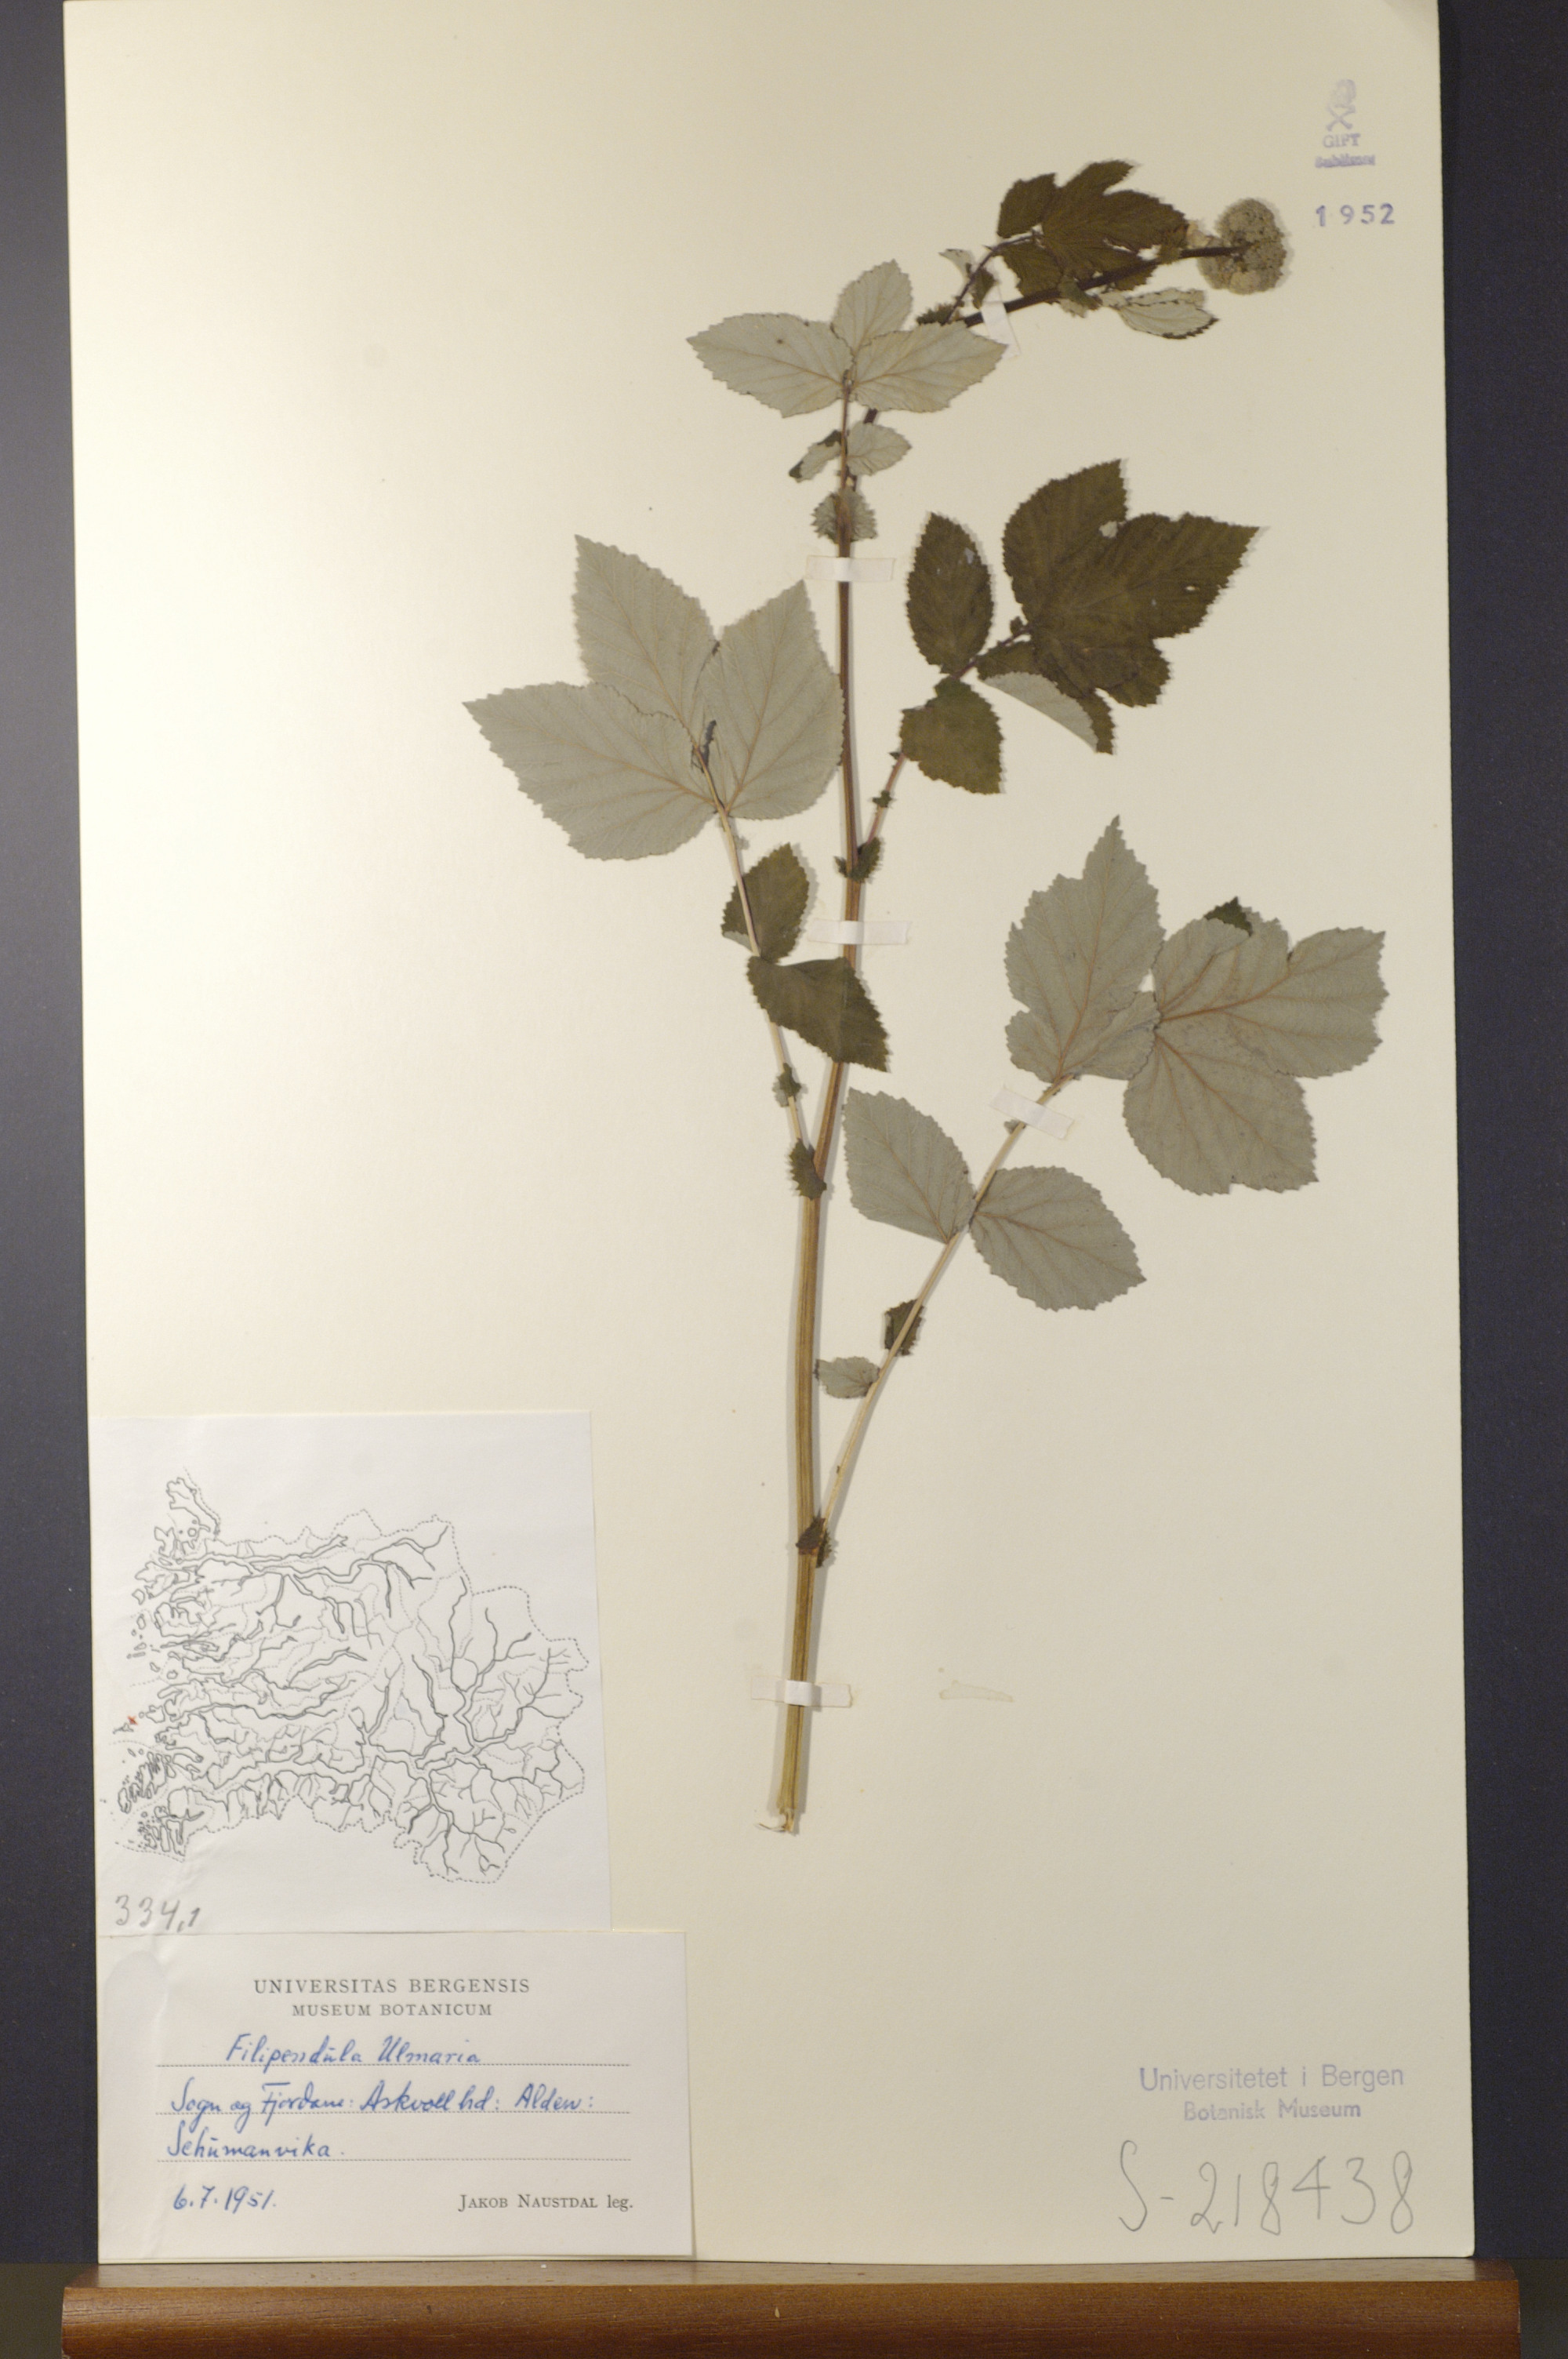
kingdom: Plantae
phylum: Tracheophyta
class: Magnoliopsida
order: Rosales
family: Rosaceae
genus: Filipendula
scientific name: Filipendula ulmaria
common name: Meadowsweet
